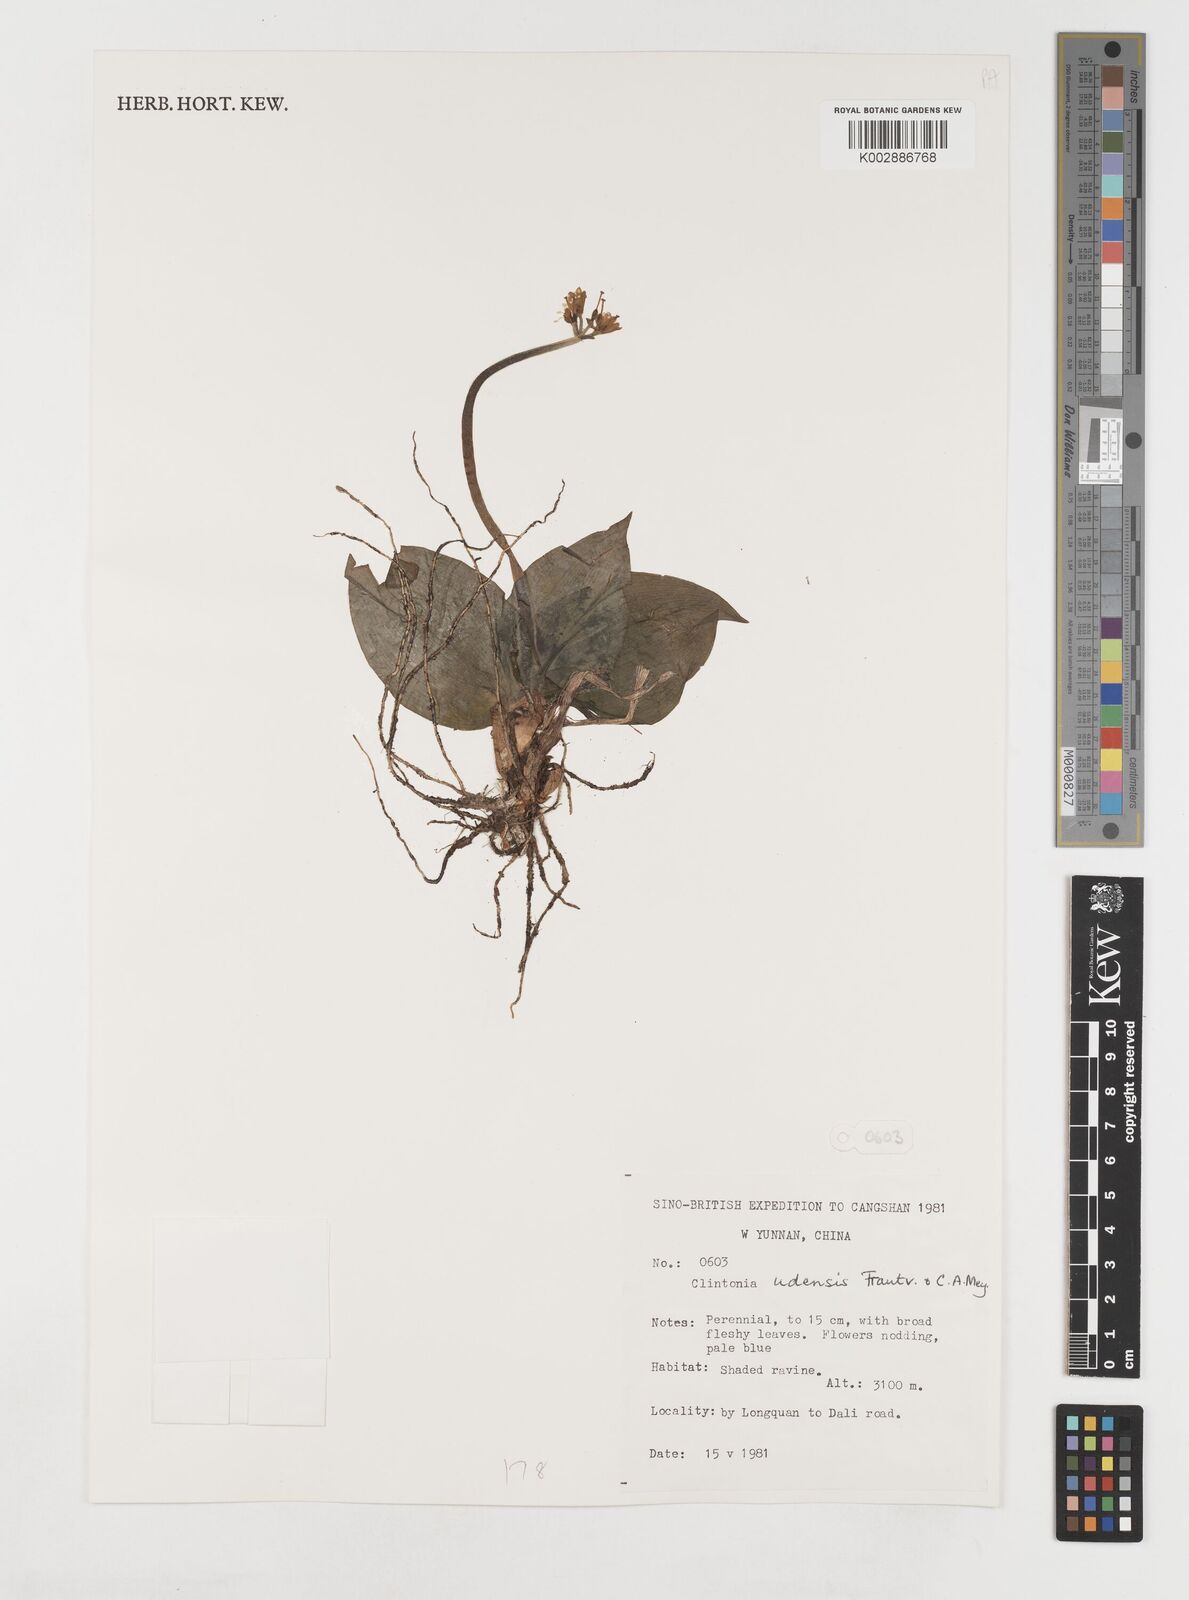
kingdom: Plantae
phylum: Tracheophyta
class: Liliopsida
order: Liliales
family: Liliaceae
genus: Clintonia
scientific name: Clintonia udensis
